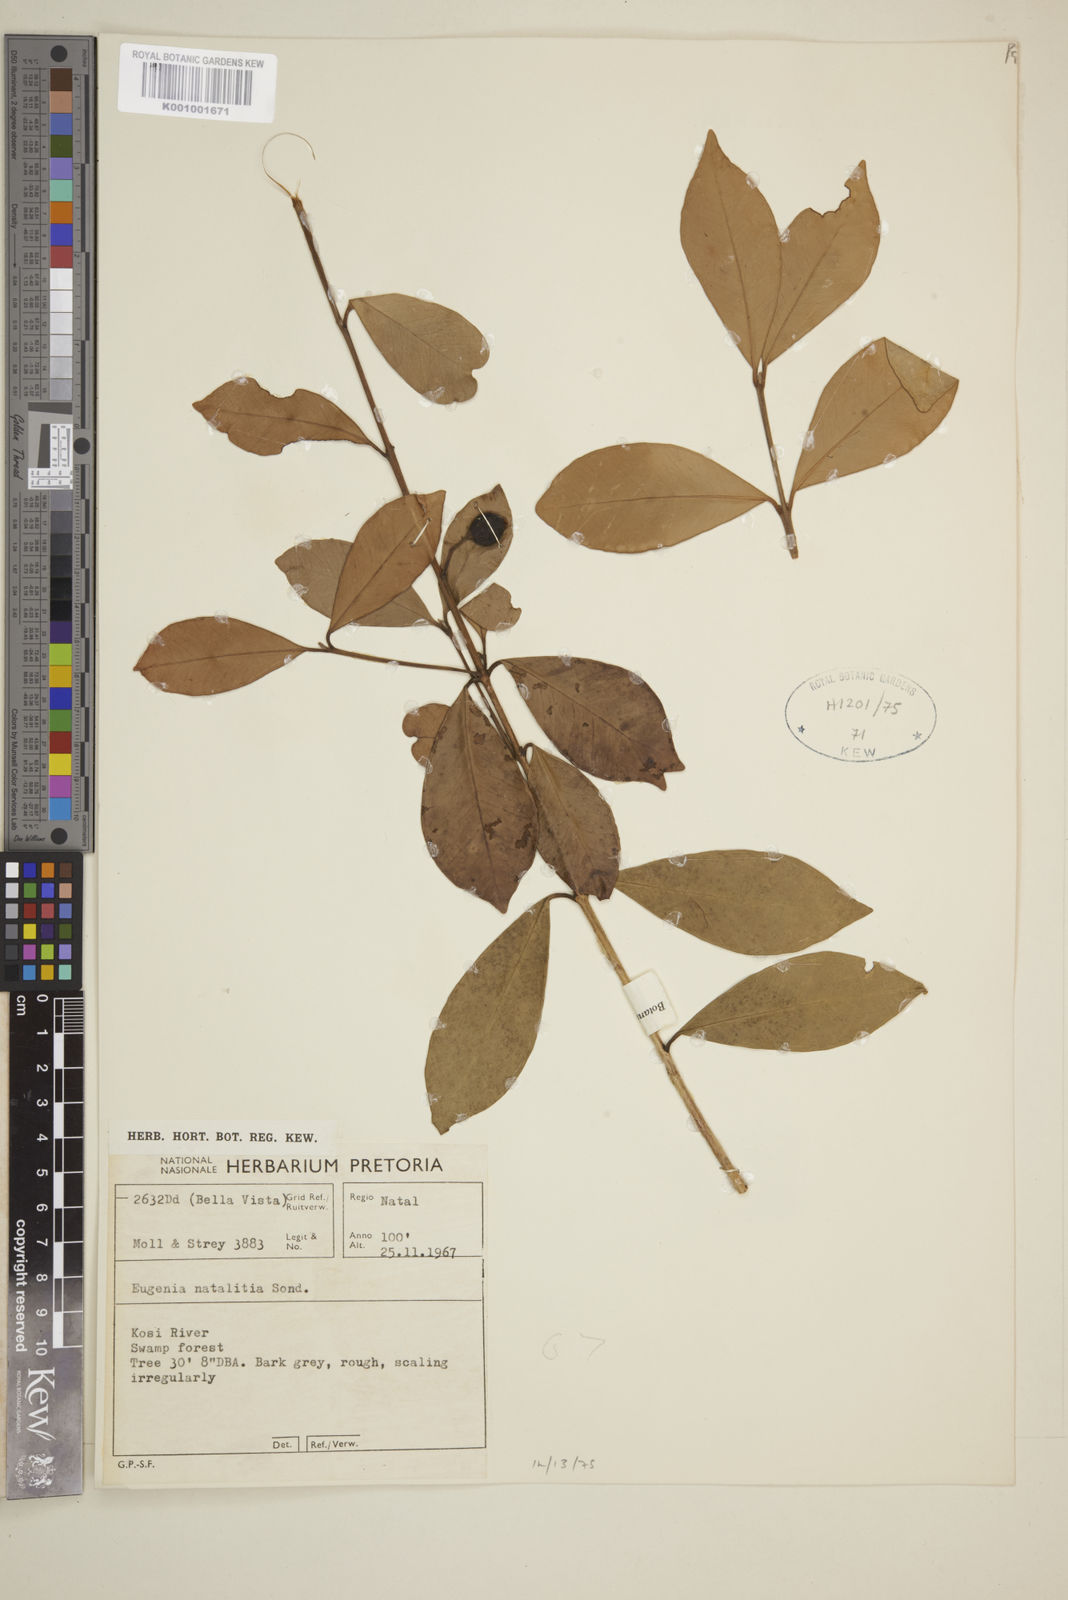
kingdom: Plantae
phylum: Tracheophyta
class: Magnoliopsida
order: Myrtales
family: Myrtaceae
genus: Eugenia
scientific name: Eugenia
